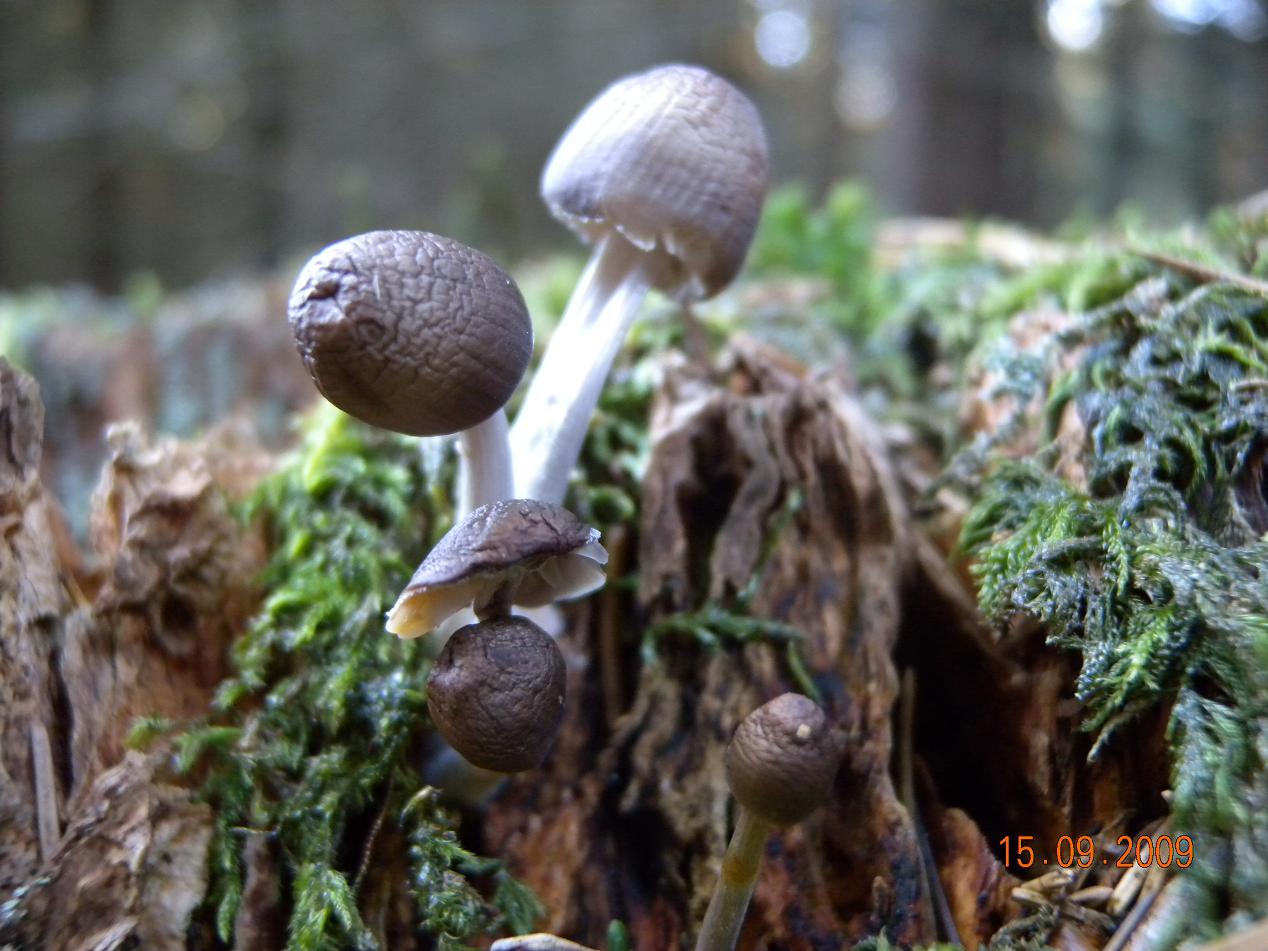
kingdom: Fungi
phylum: Basidiomycota
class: Agaricomycetes
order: Agaricales
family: Mycenaceae
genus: Mycena
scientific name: Mycena inclinata
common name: nikkende huesvamp
